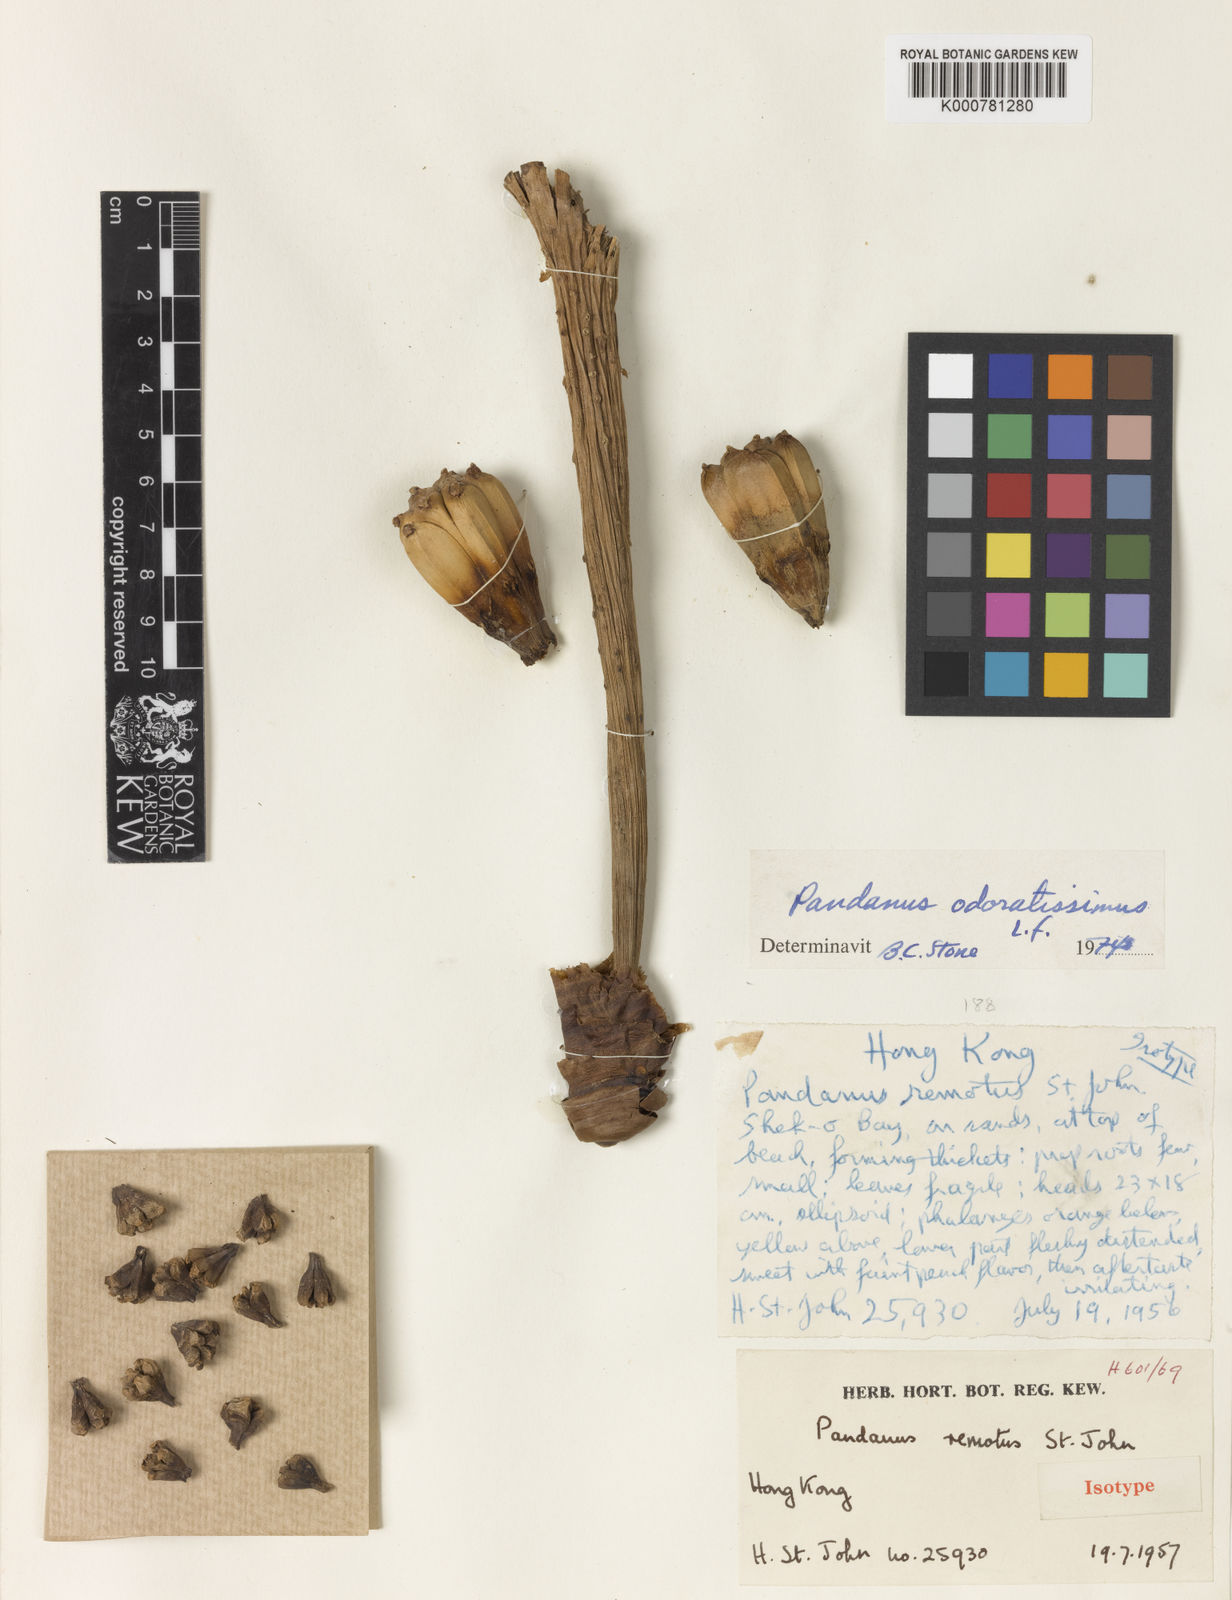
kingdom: Plantae
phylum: Tracheophyta
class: Liliopsida
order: Pandanales
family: Pandanaceae
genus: Pandanus
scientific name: Pandanus odorifer
